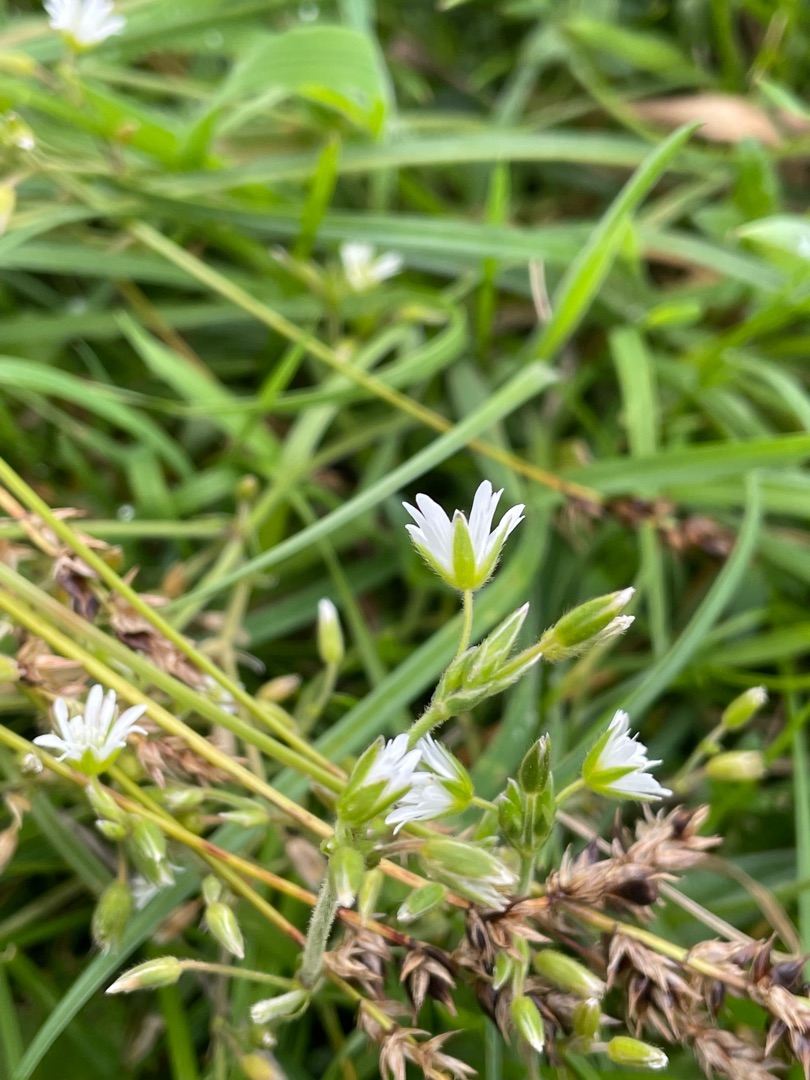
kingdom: Plantae
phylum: Tracheophyta
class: Magnoliopsida
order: Caryophyllales
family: Caryophyllaceae
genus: Cerastium
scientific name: Cerastium fontanum
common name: Almindelig hønsetarm
